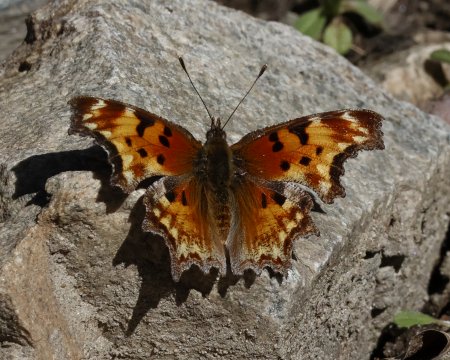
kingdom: Animalia
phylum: Arthropoda
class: Insecta
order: Lepidoptera
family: Nymphalidae
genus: Polygonia
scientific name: Polygonia gracilis
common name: Hoary Comma
